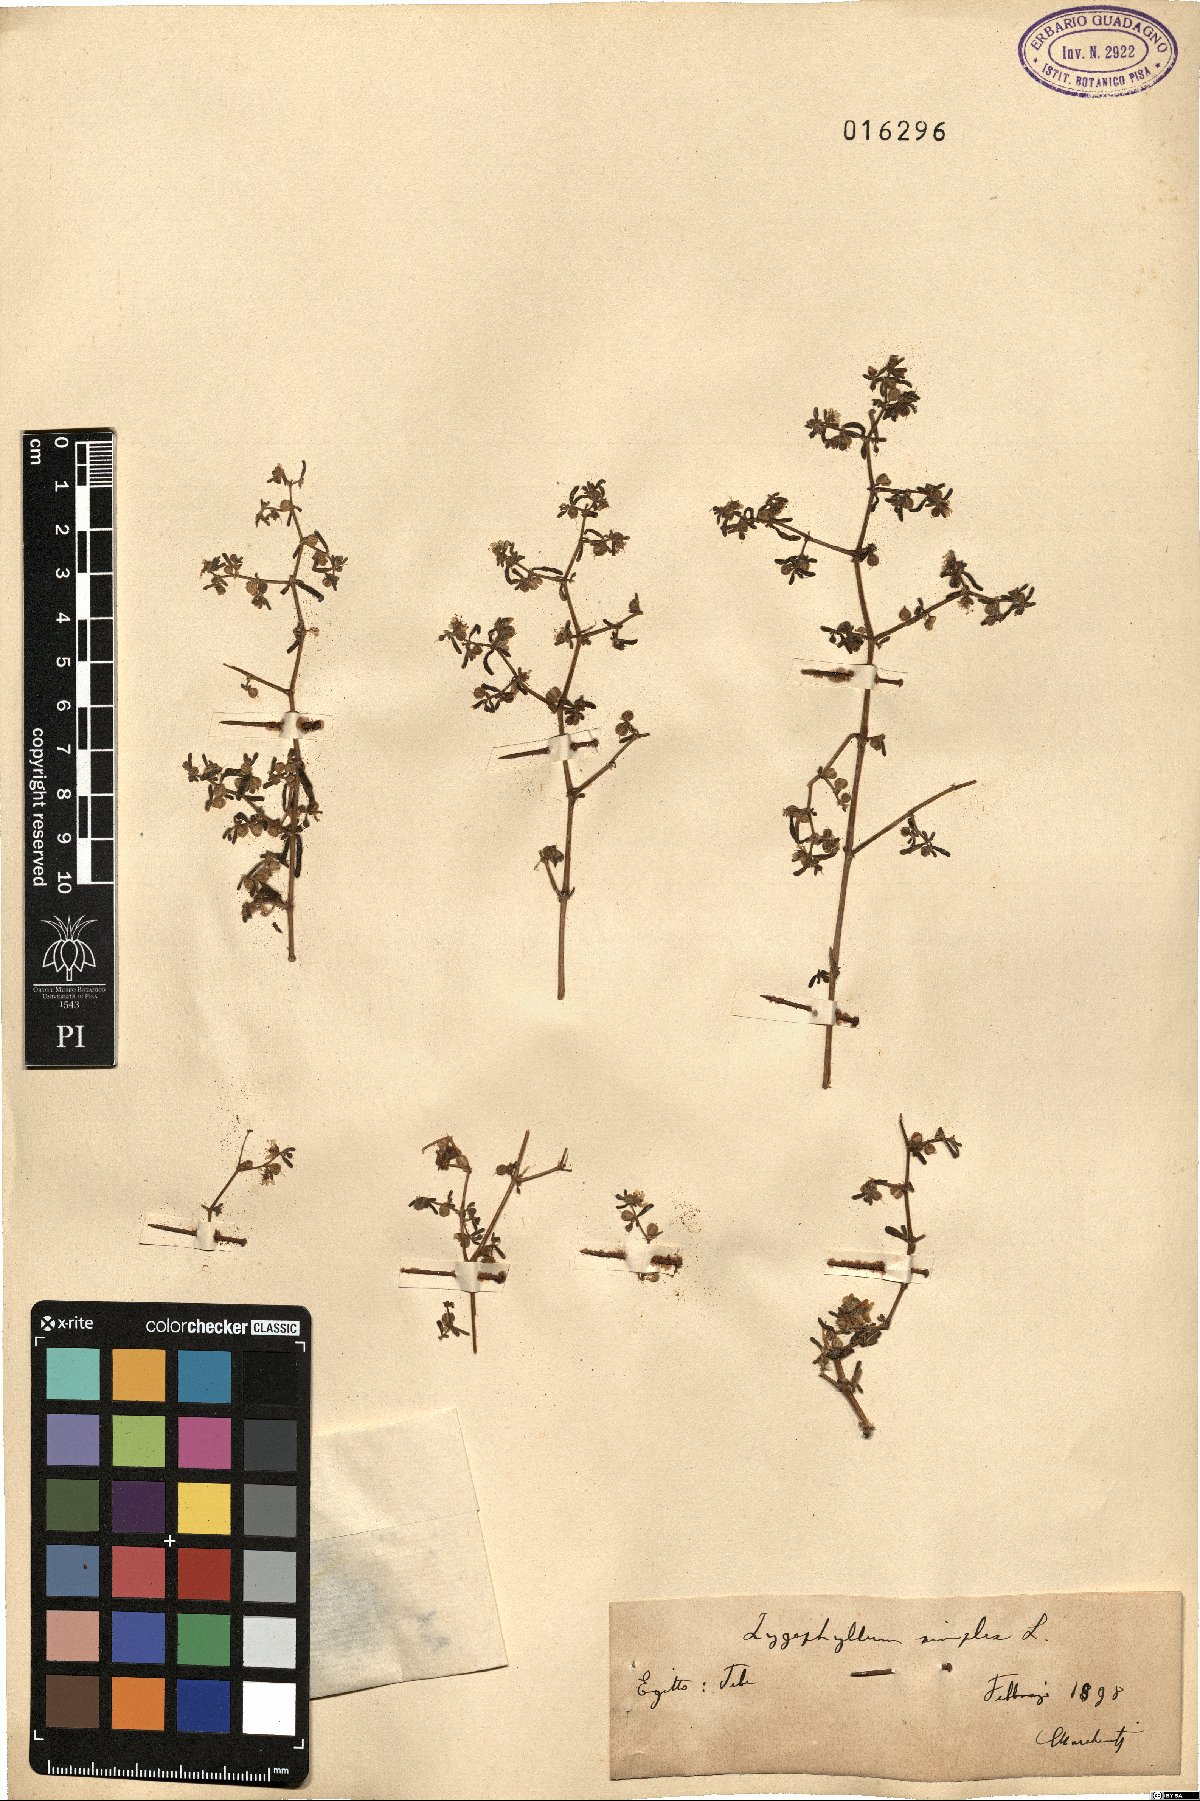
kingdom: Plantae
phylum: Tracheophyta
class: Magnoliopsida
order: Zygophyllales
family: Zygophyllaceae
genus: Tetraena
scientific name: Tetraena simplex
